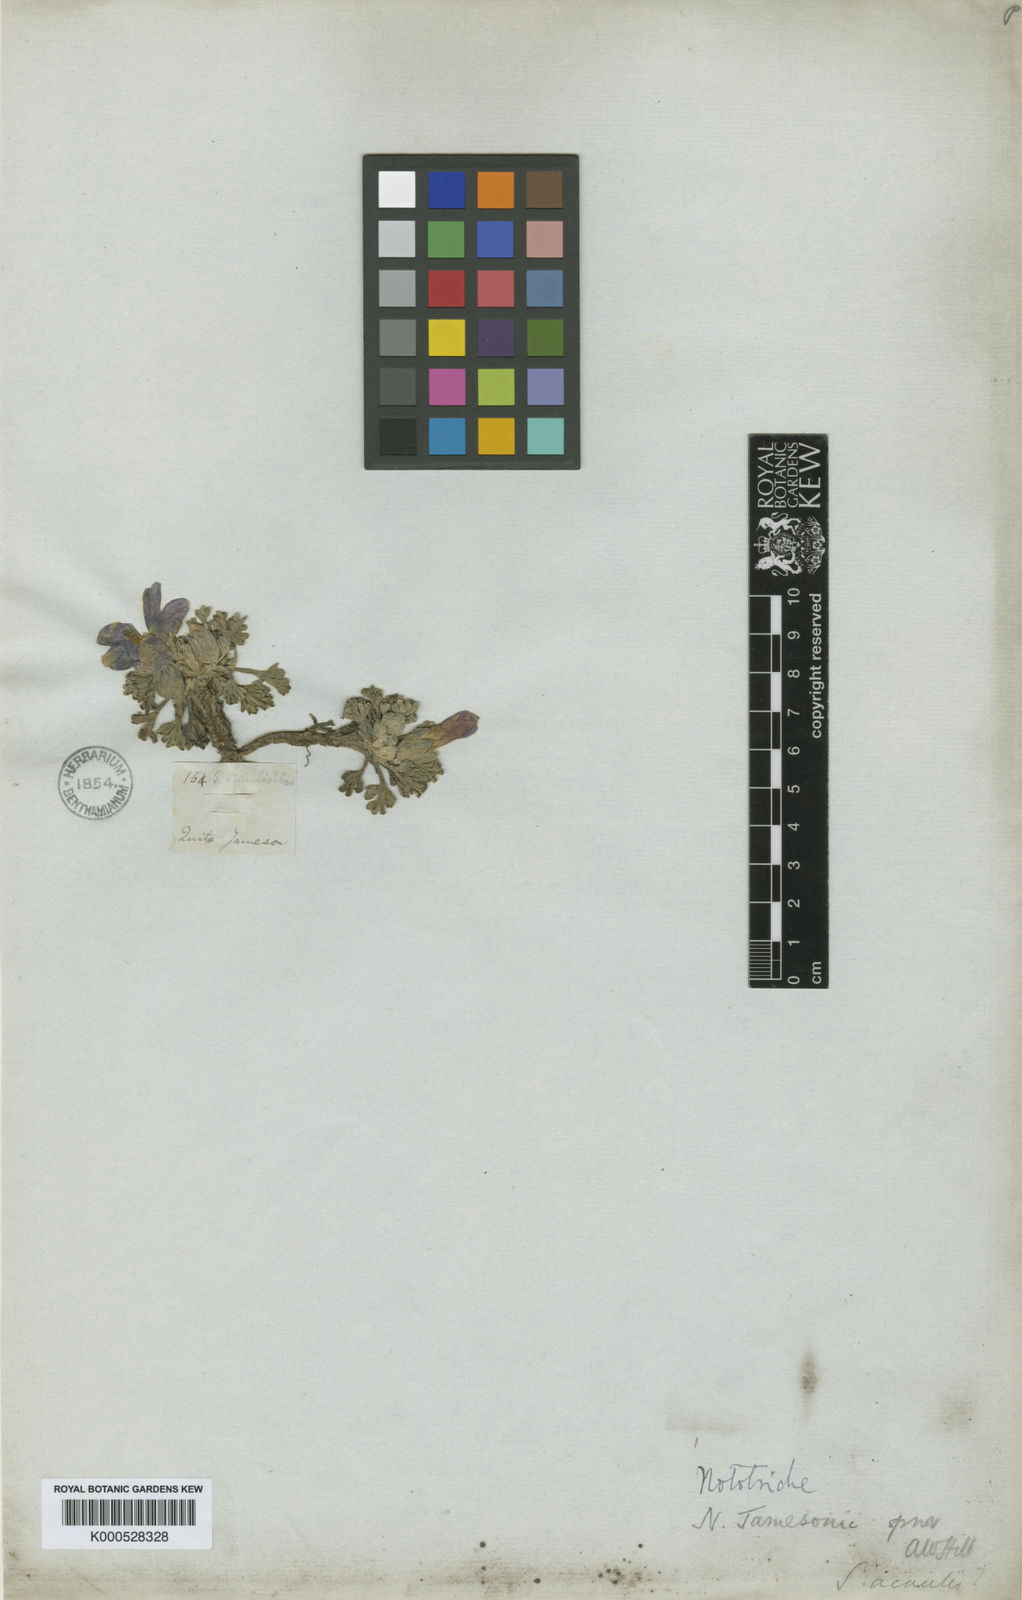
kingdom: Plantae
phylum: Tracheophyta
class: Magnoliopsida
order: Malvales
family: Malvaceae
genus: Nototriche
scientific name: Nototriche jamesonii
